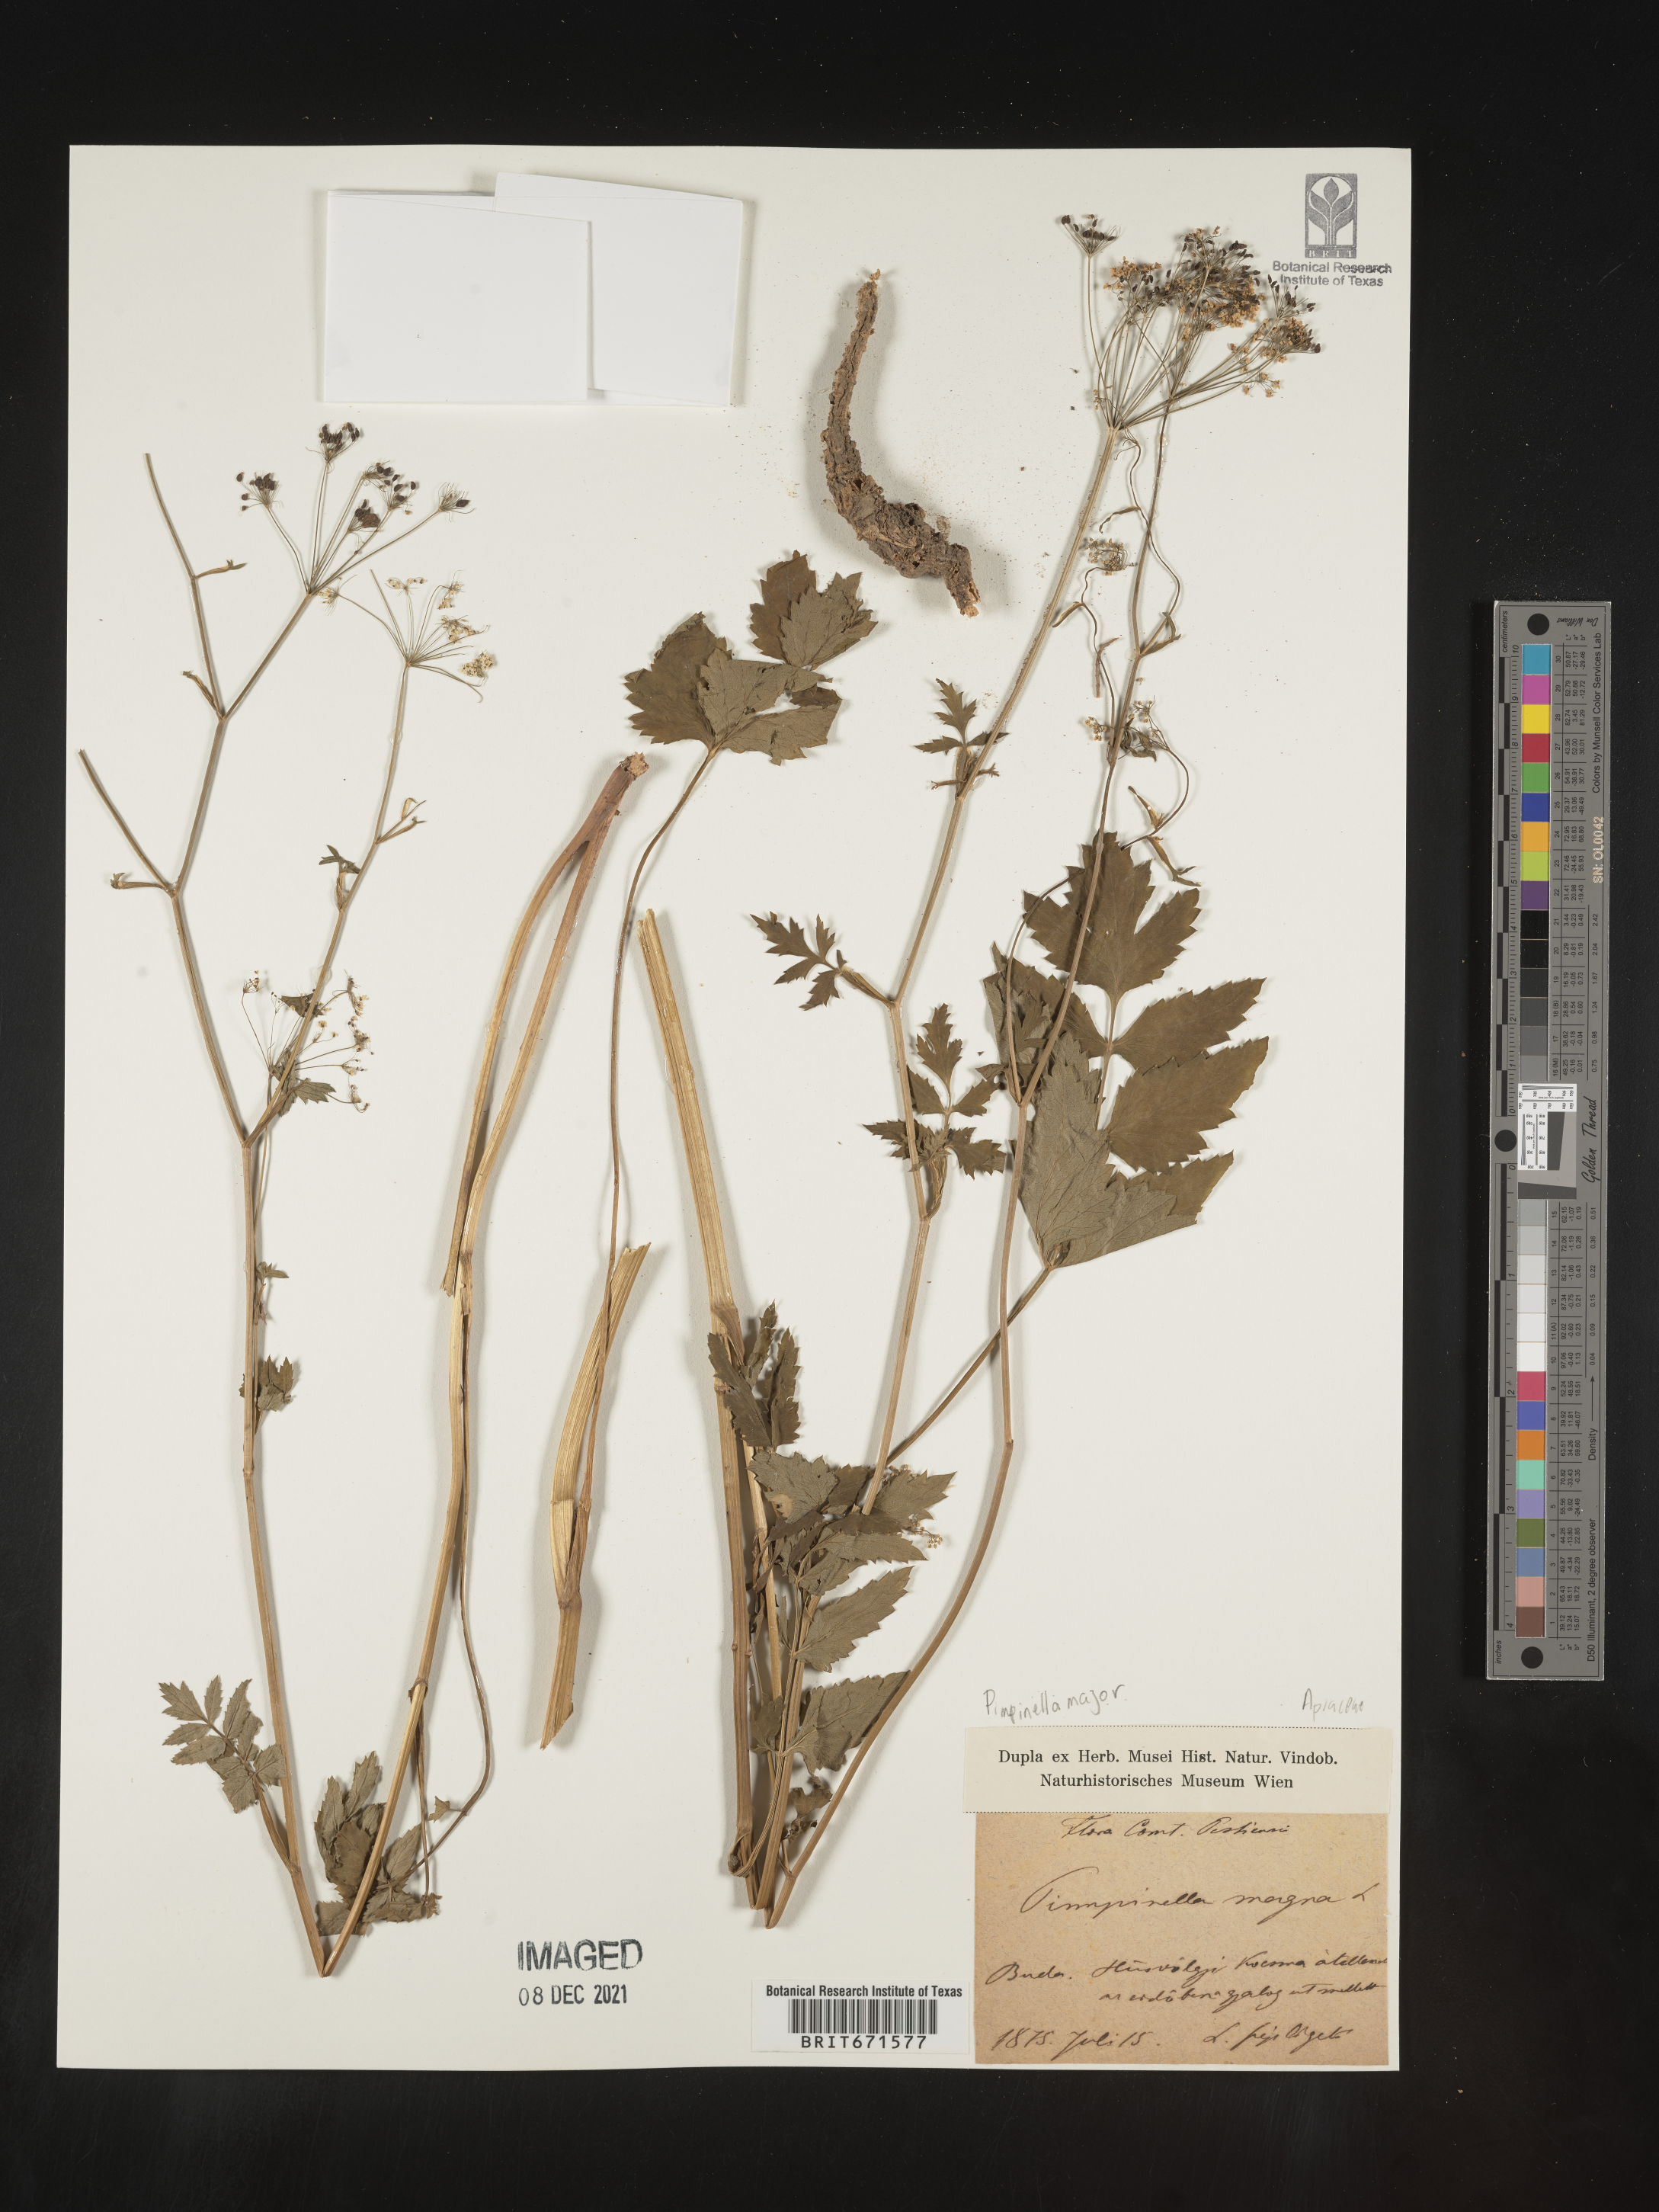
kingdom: Plantae
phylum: Tracheophyta
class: Magnoliopsida
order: Apiales
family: Apiaceae
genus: Pimpinella
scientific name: Pimpinella major
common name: Greater burnet-saxifrage
